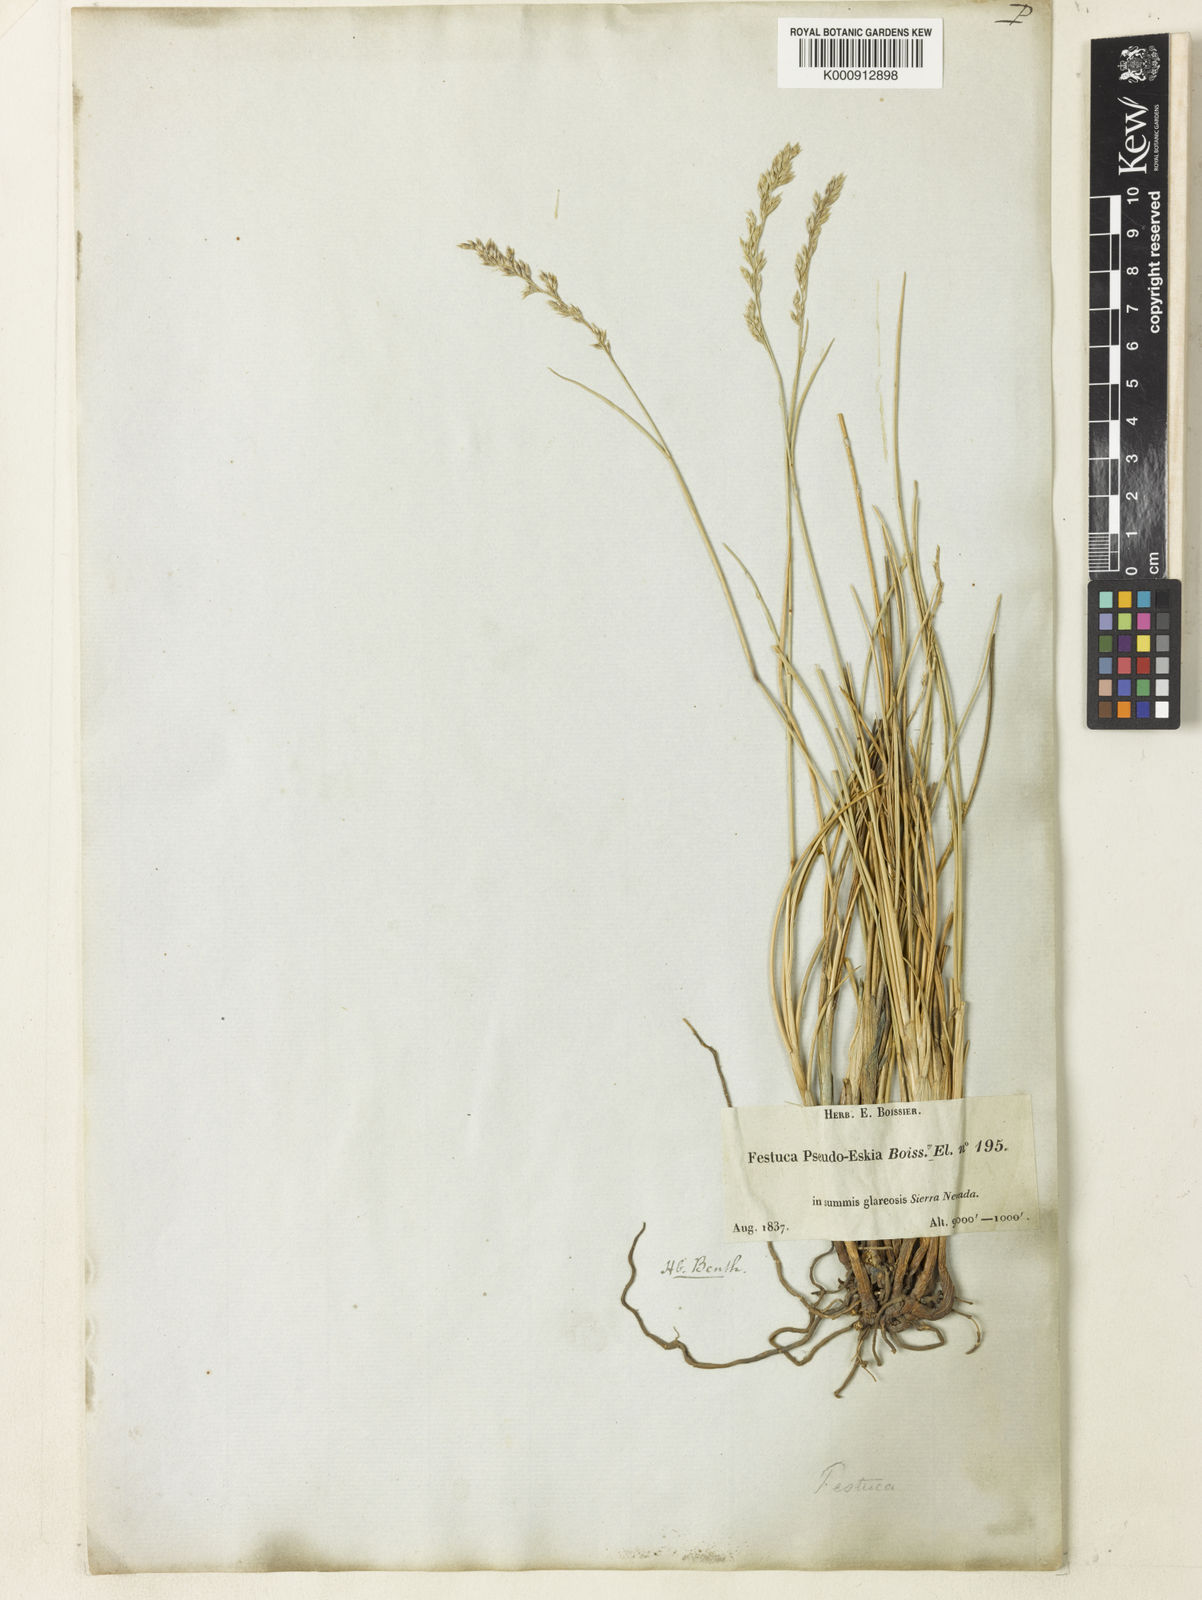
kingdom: Plantae
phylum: Tracheophyta
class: Liliopsida
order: Poales
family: Poaceae
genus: Festuca
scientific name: Festuca
